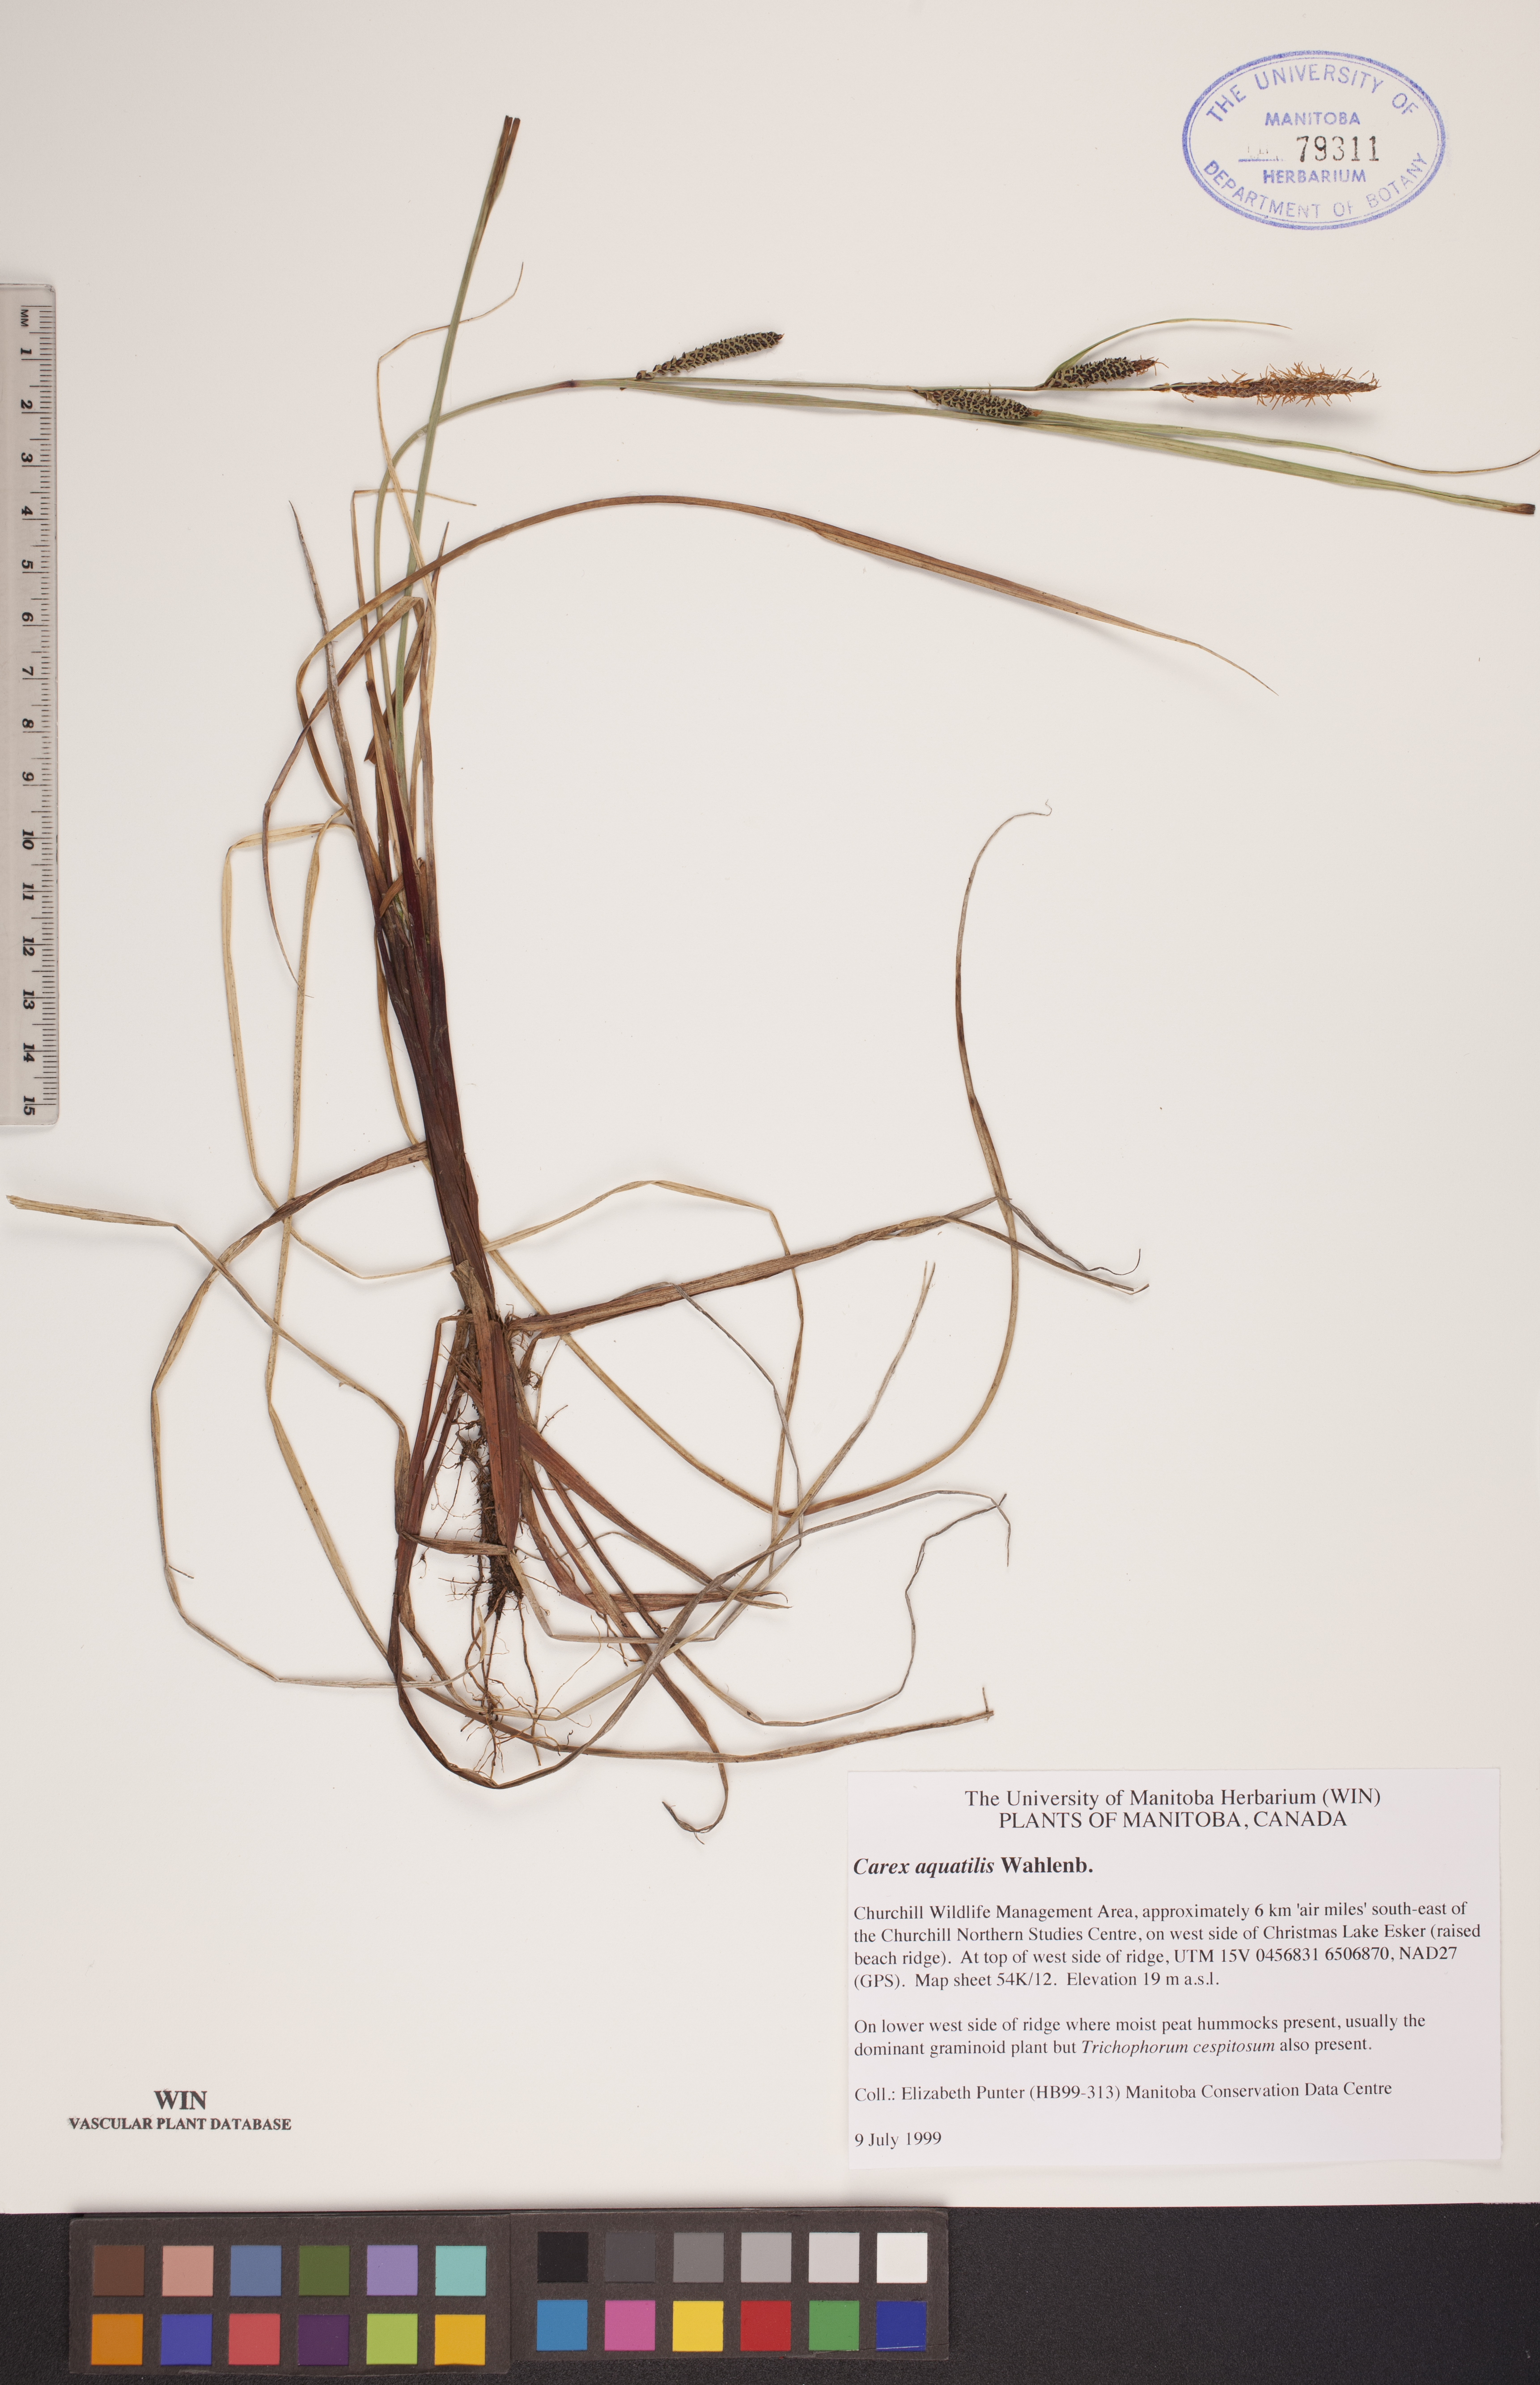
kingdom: Plantae
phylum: Tracheophyta
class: Liliopsida
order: Poales
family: Cyperaceae
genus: Carex
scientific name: Carex aquatilis
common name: Water sedge
